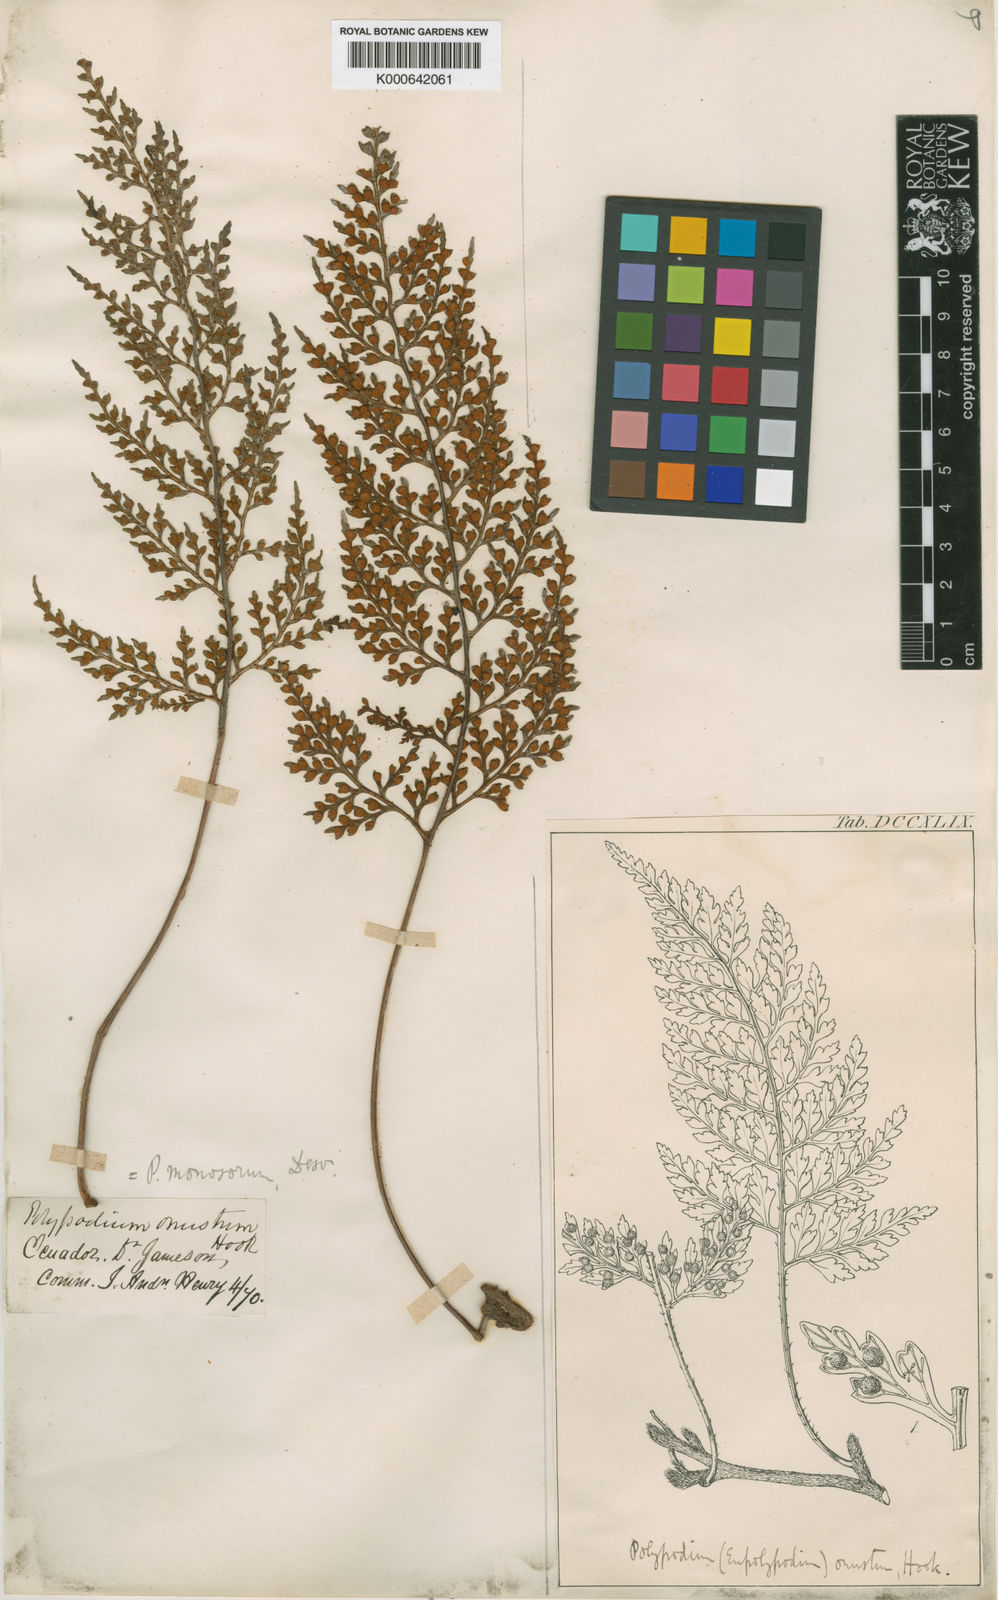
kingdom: Plantae
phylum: Tracheophyta
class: Polypodiopsida
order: Polypodiales
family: Polypodiaceae
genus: Pleopeltis
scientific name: Pleopeltis monosora
